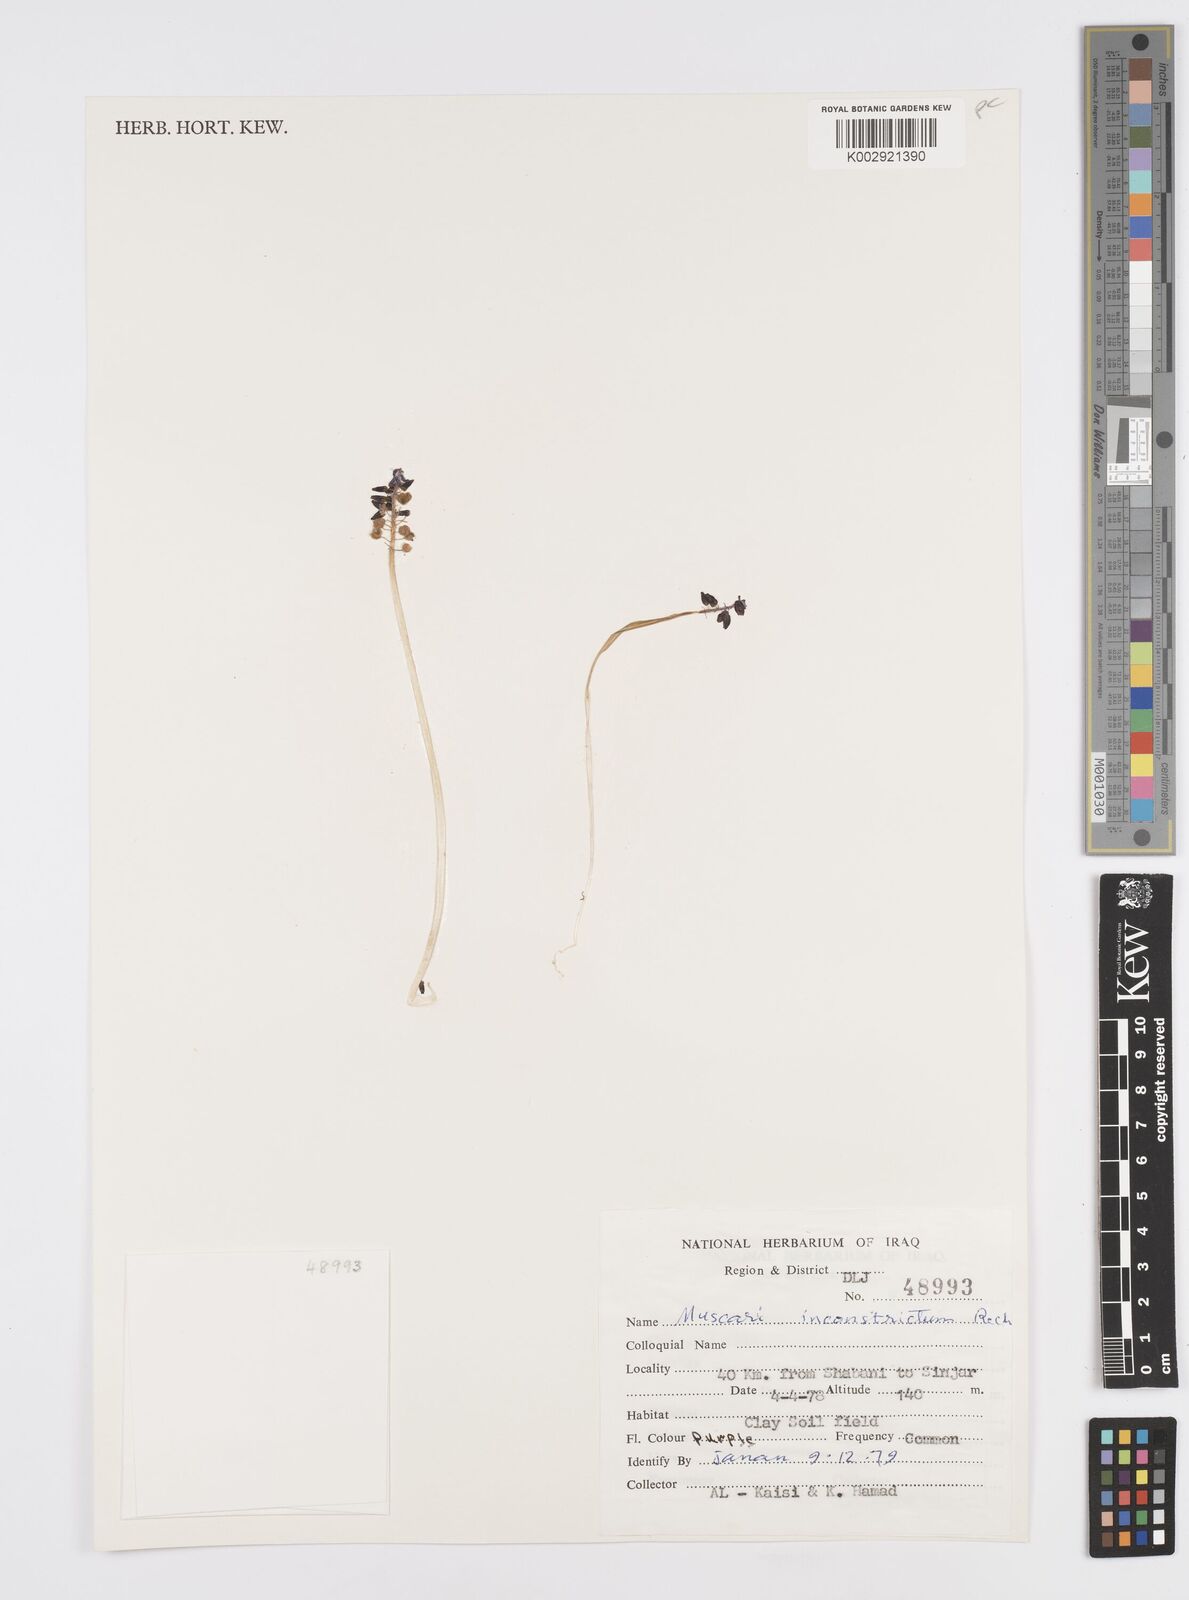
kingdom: Plantae
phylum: Tracheophyta
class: Liliopsida
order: Asparagales
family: Asparagaceae
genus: Muscari
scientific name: Muscari inconstrictum
